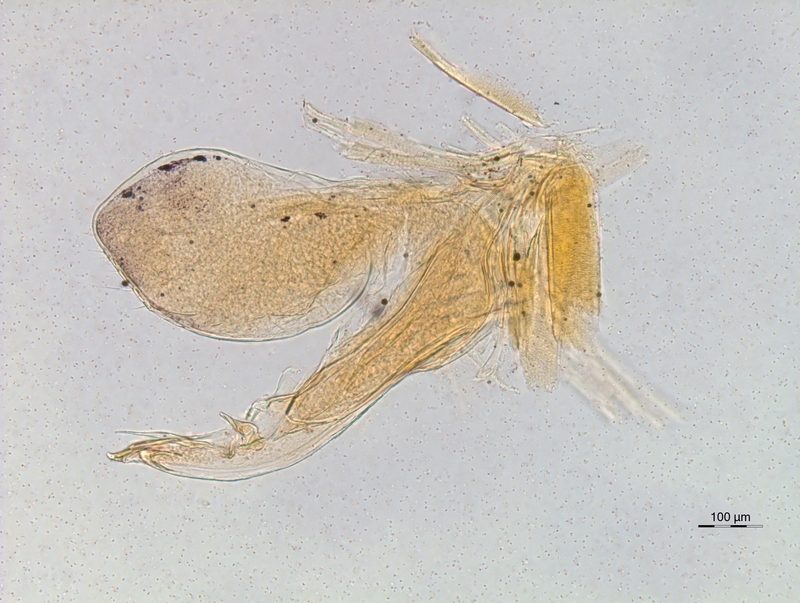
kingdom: Animalia
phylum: Arthropoda
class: Diplopoda
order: Chordeumatida
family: Chordeumatidae
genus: Chordeuma
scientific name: Chordeuma sylvestre
